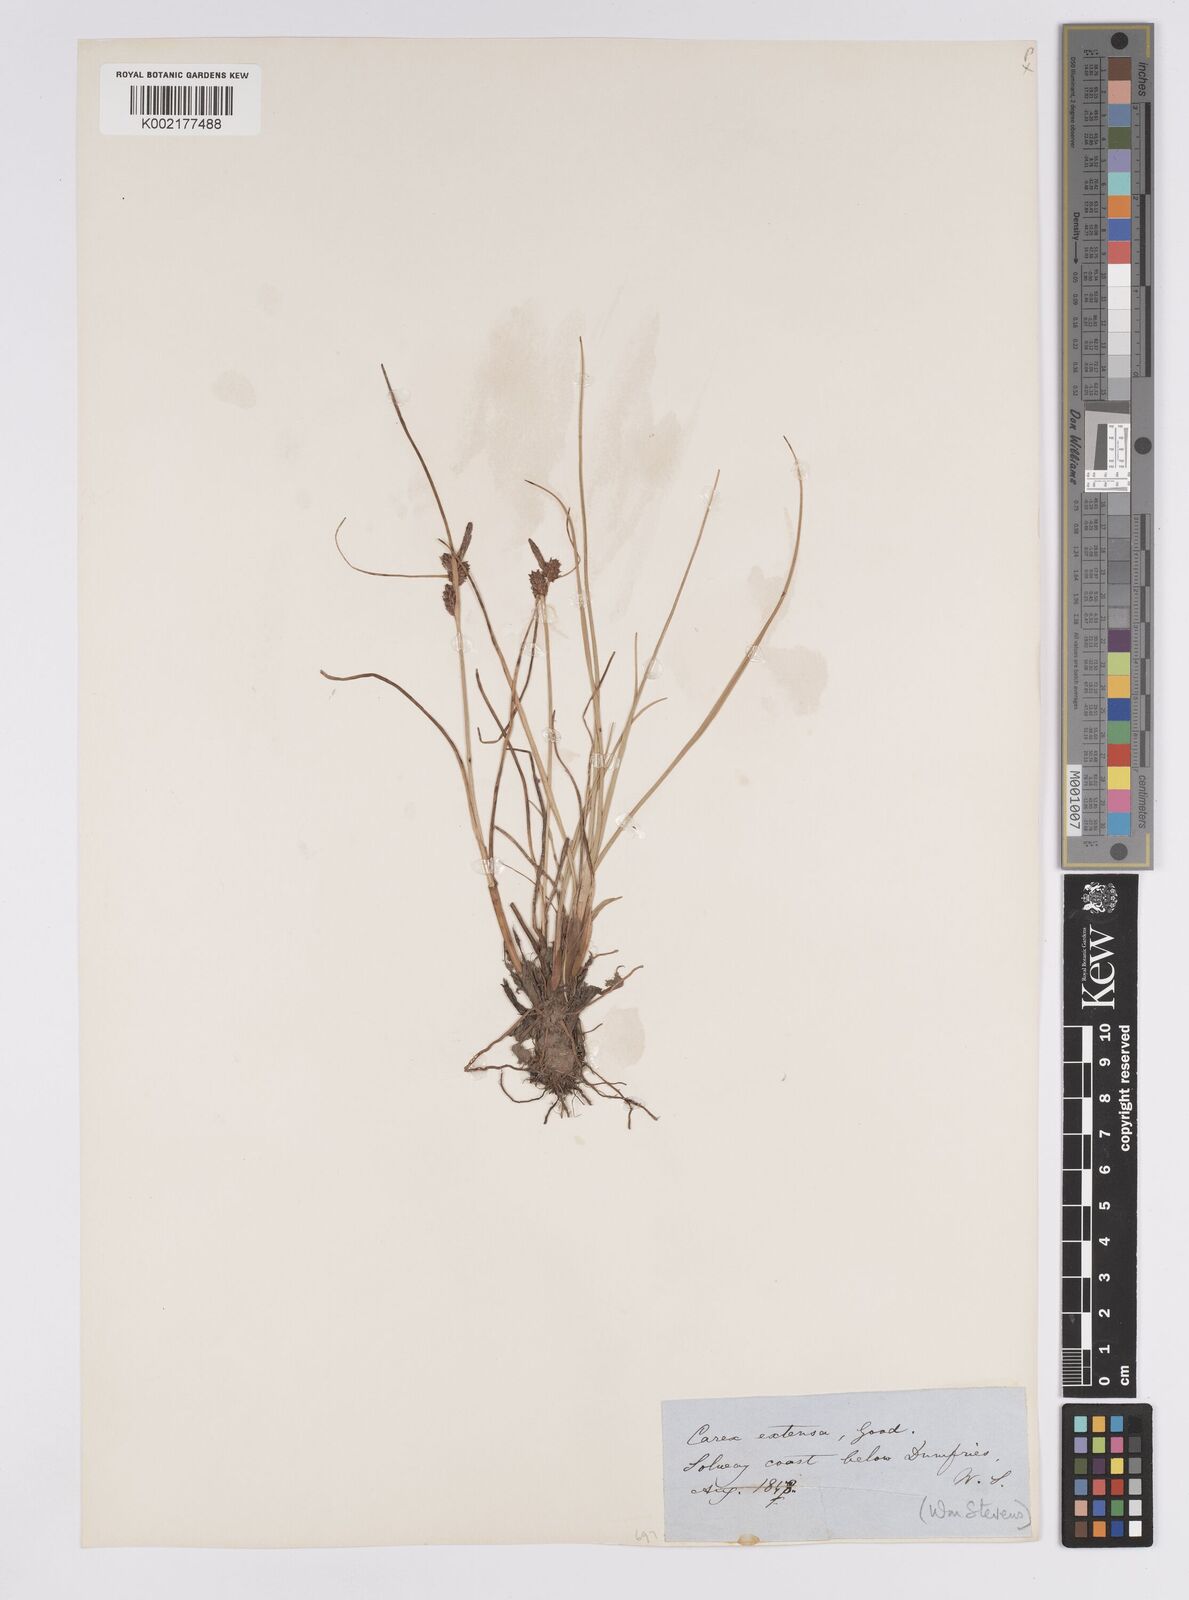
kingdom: Plantae
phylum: Tracheophyta
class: Liliopsida
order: Poales
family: Cyperaceae
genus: Carex
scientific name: Carex extensa
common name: Long-bracted sedge
